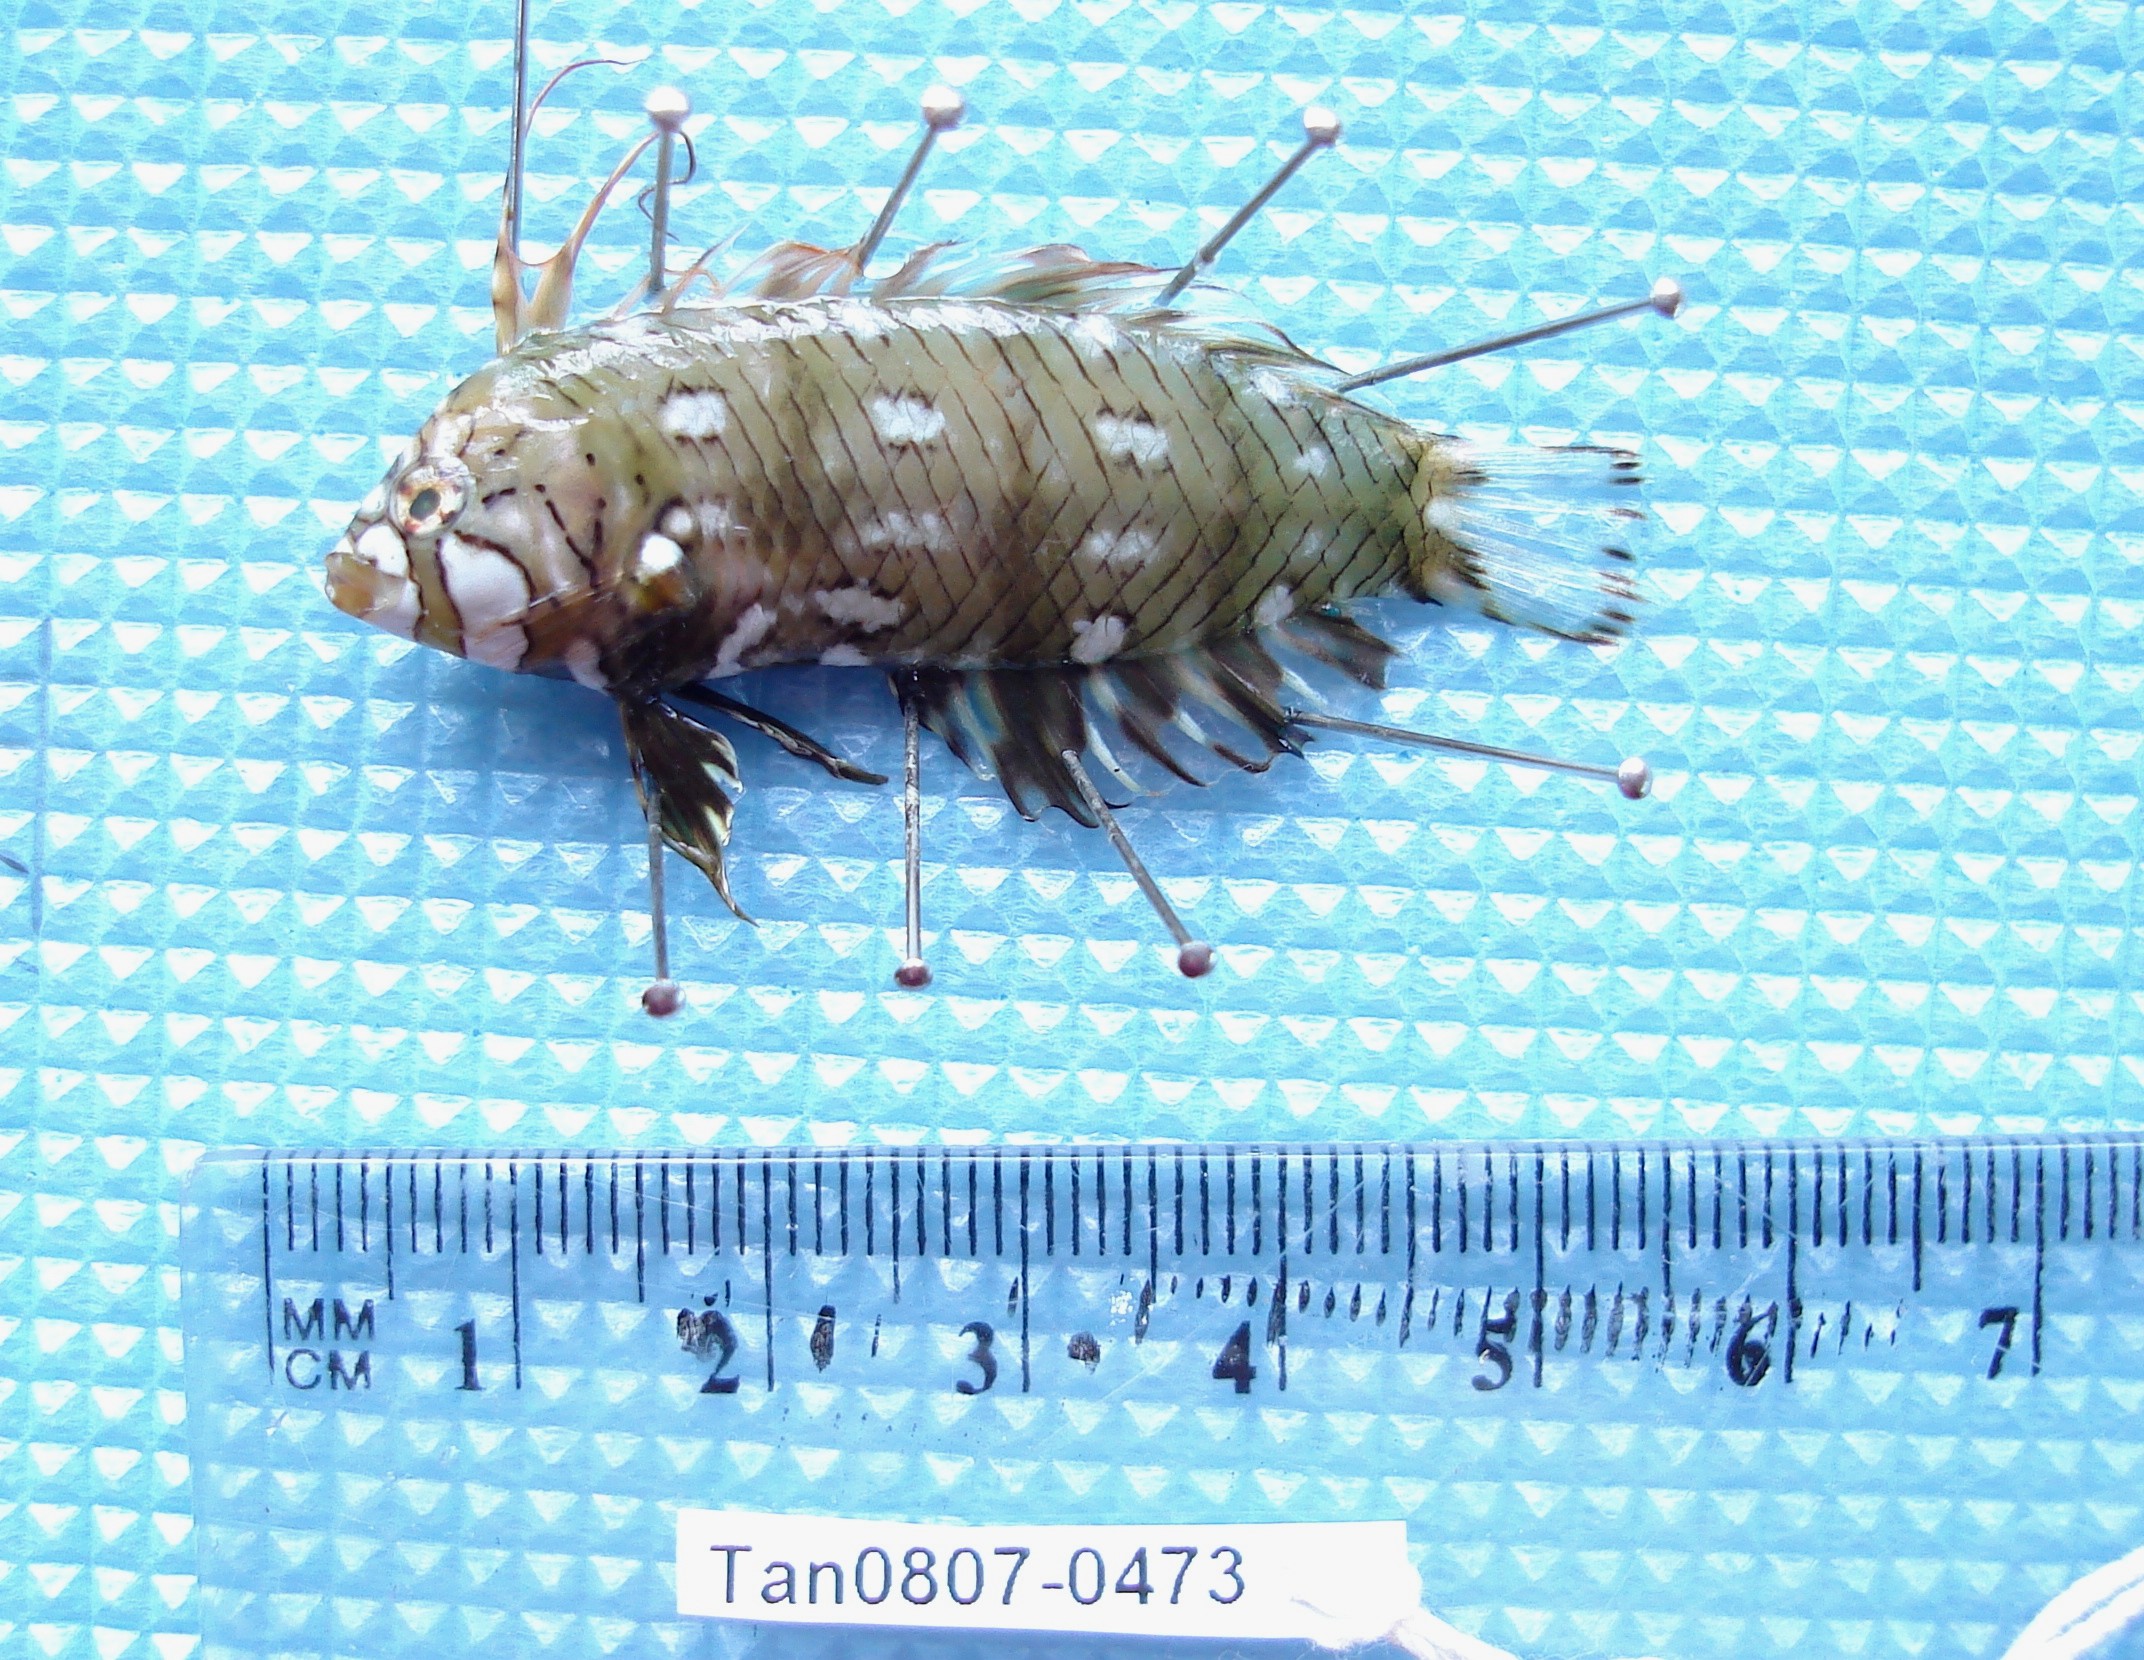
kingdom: Animalia
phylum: Chordata
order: Perciformes
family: Labridae
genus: Novaculichthys
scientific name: Novaculichthys taeniourus
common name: Rockmover wrasse
